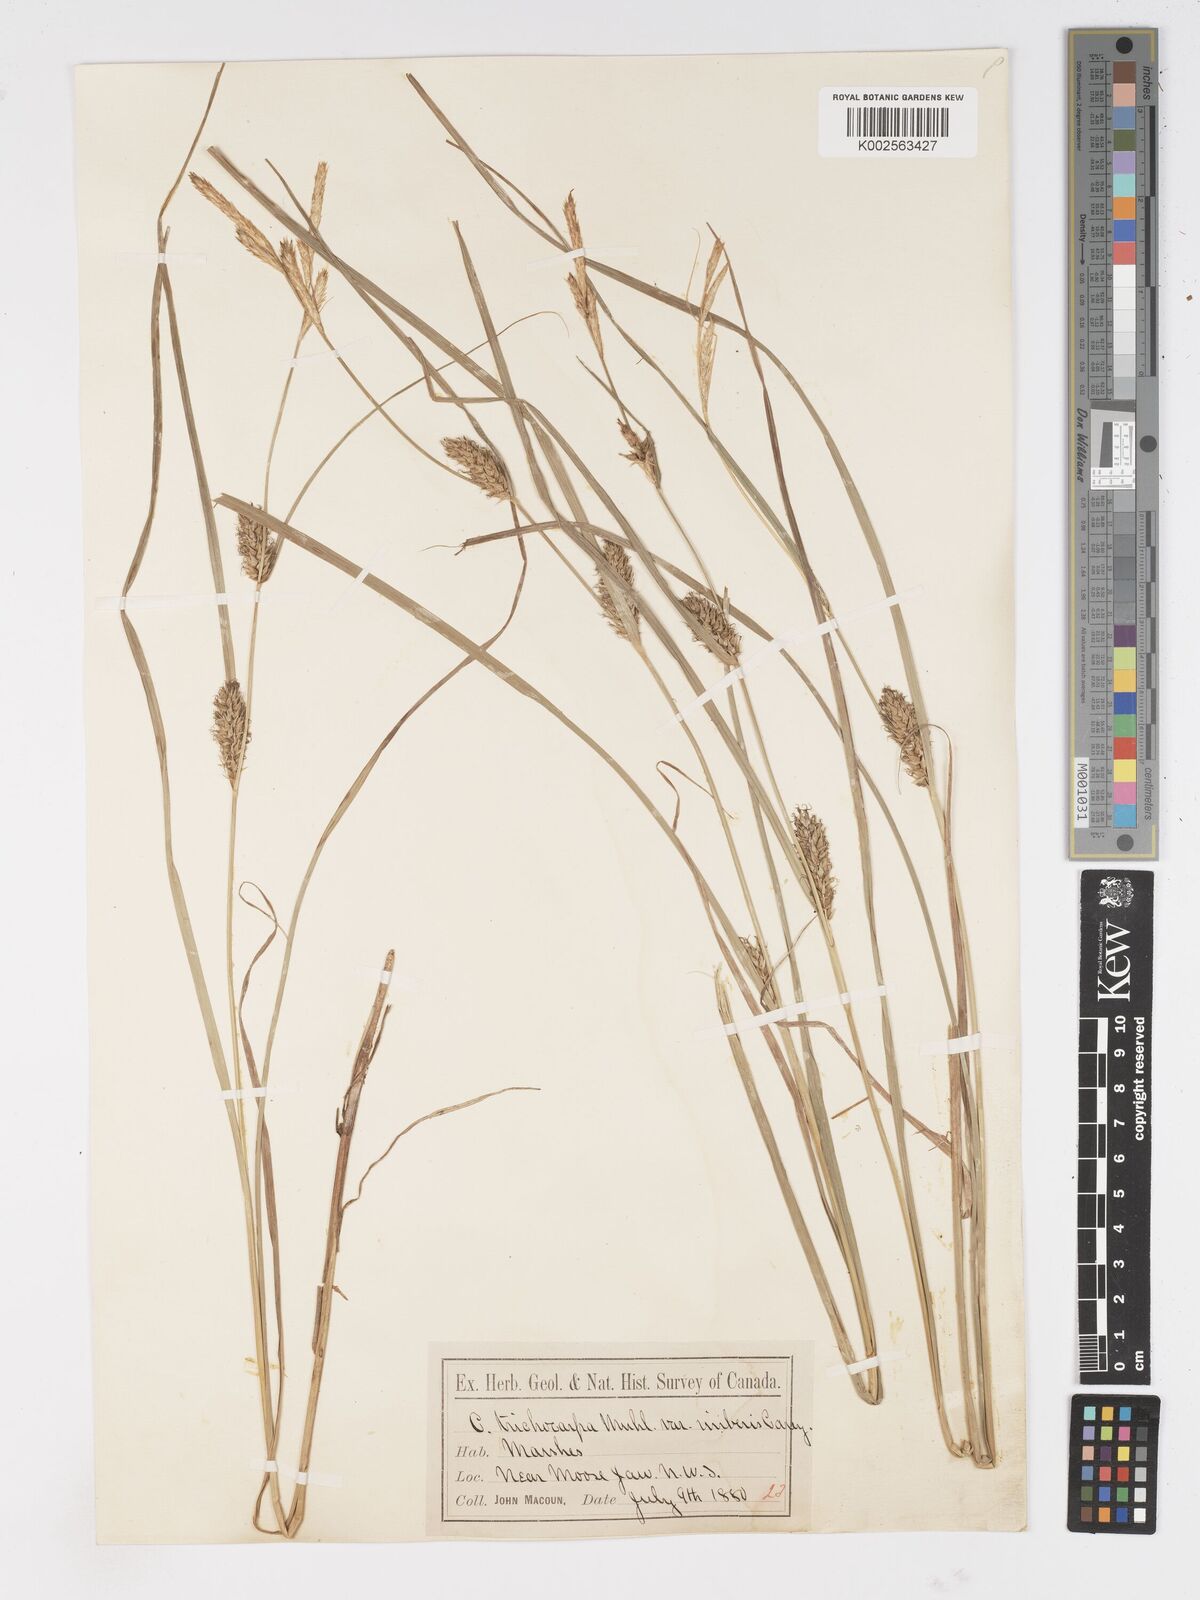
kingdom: Plantae
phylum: Tracheophyta
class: Liliopsida
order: Poales
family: Cyperaceae
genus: Carex
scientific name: Carex trichocarpa
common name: Hairy-fruited lake sedge
